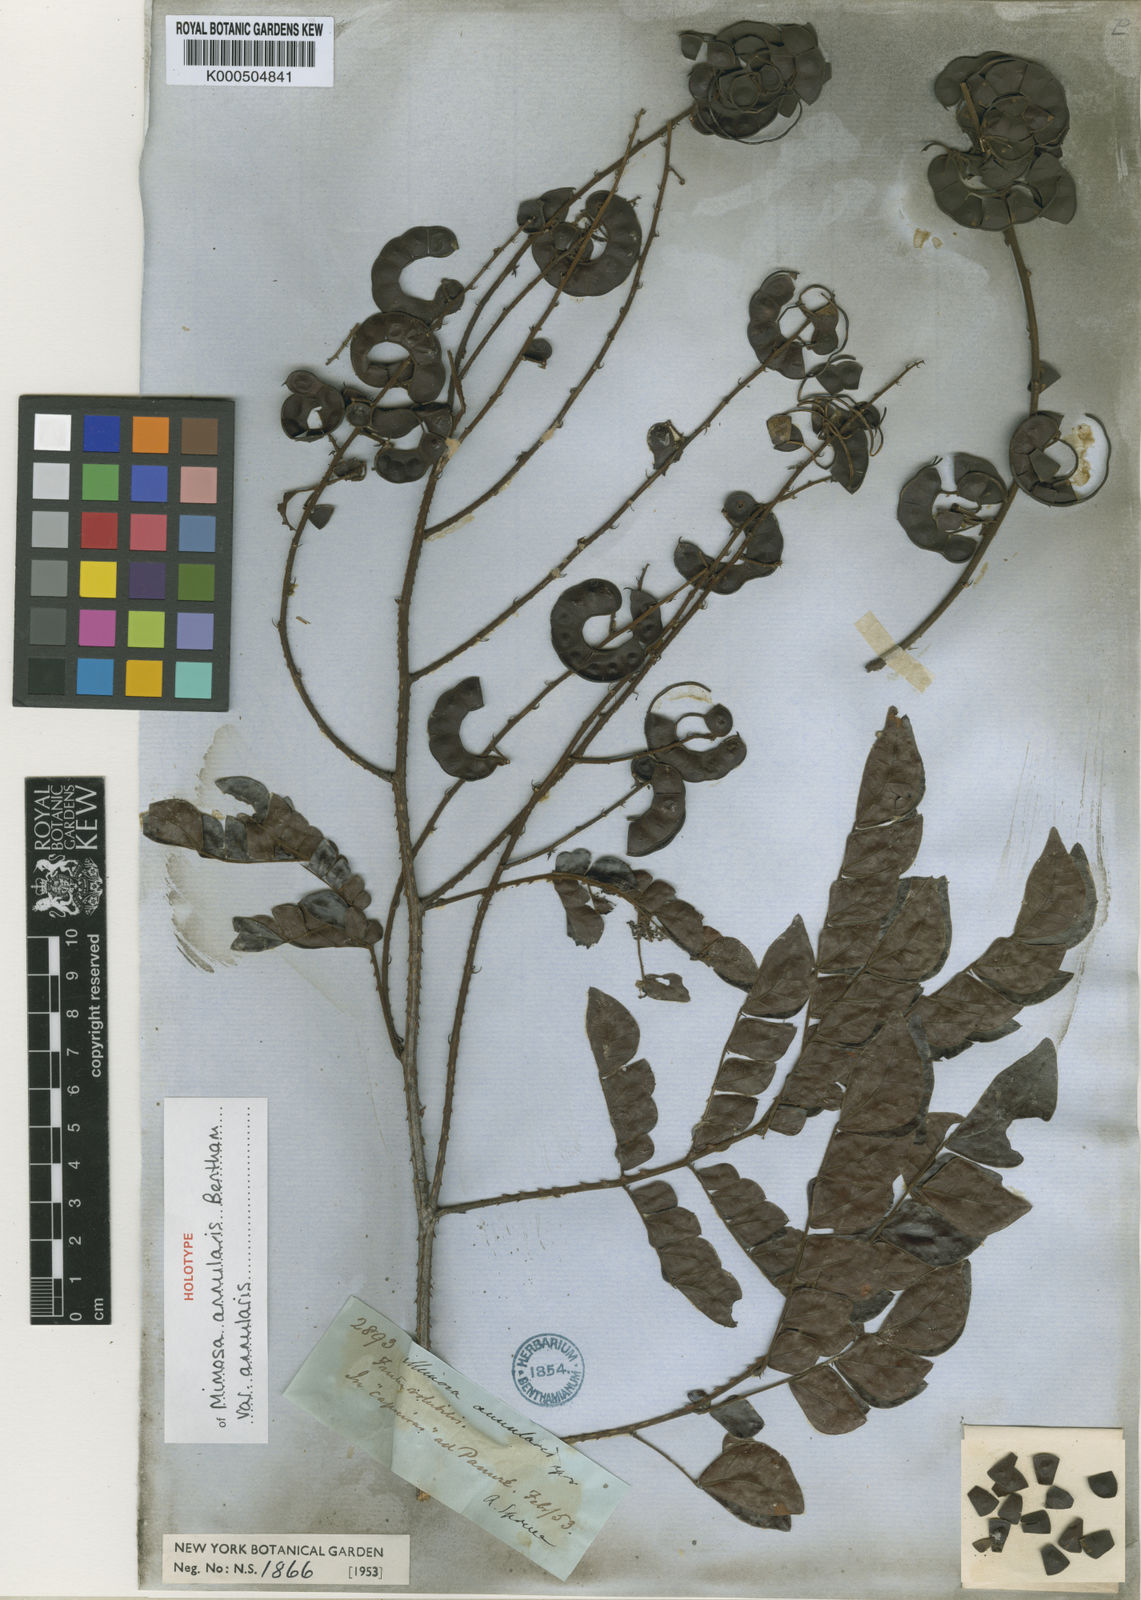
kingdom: Plantae
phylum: Tracheophyta
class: Magnoliopsida
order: Fabales
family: Fabaceae
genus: Mimosa
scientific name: Mimosa annularis
